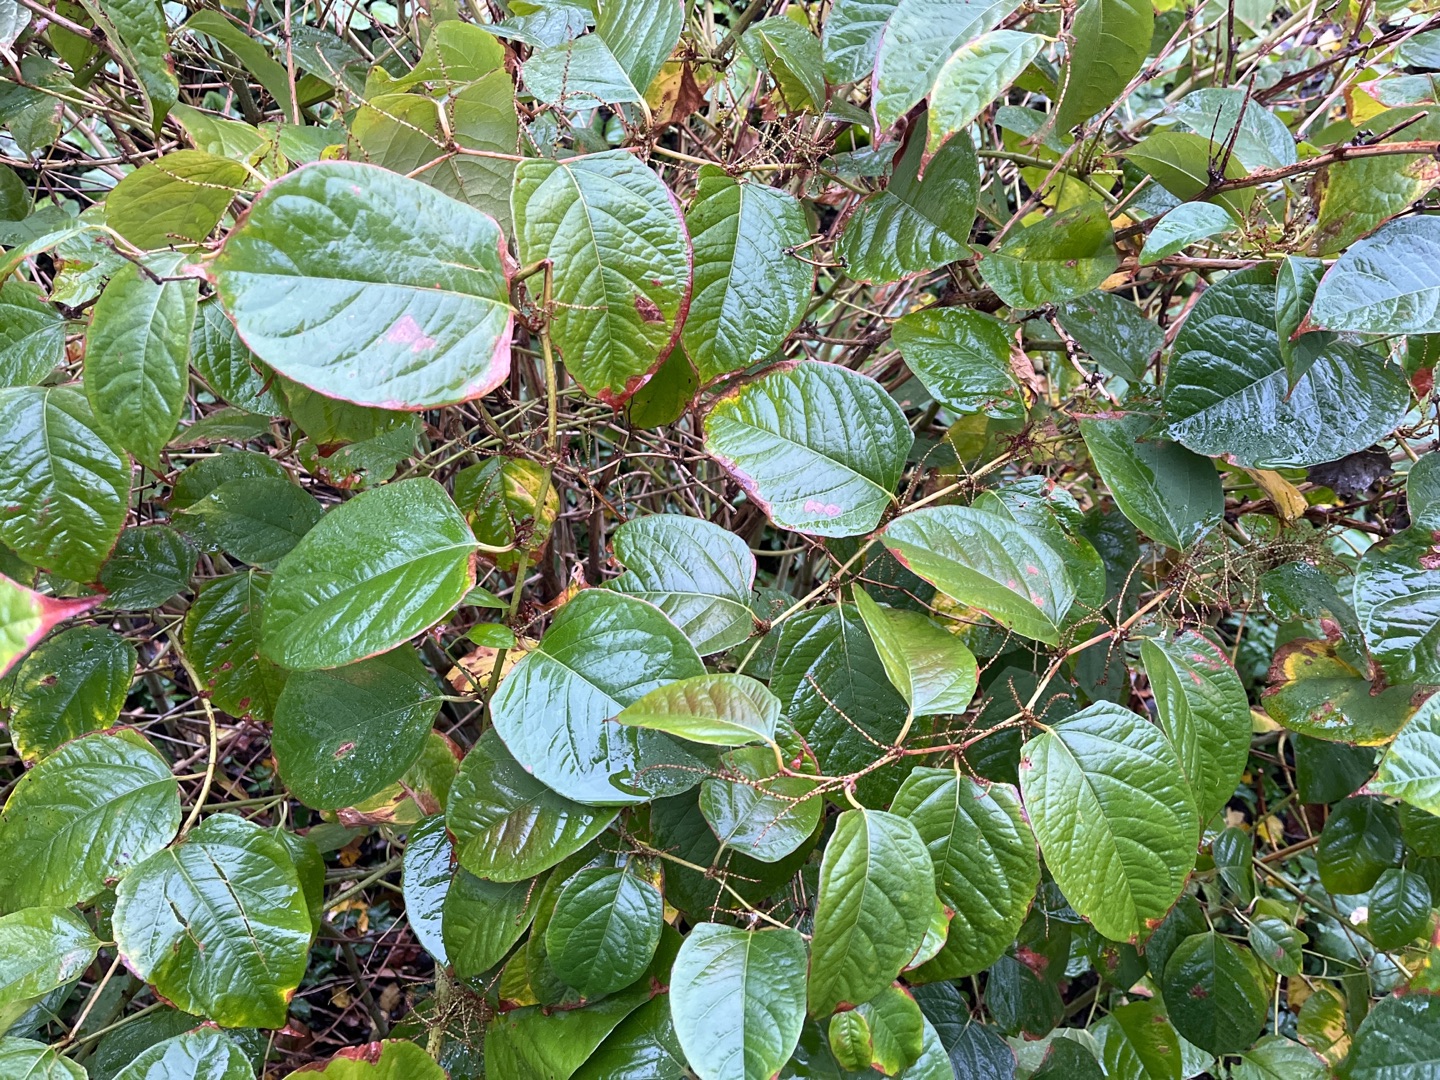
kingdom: Plantae
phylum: Tracheophyta
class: Magnoliopsida
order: Caryophyllales
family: Polygonaceae
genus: Reynoutria
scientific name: Reynoutria japonica
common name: Japan-pileurt
